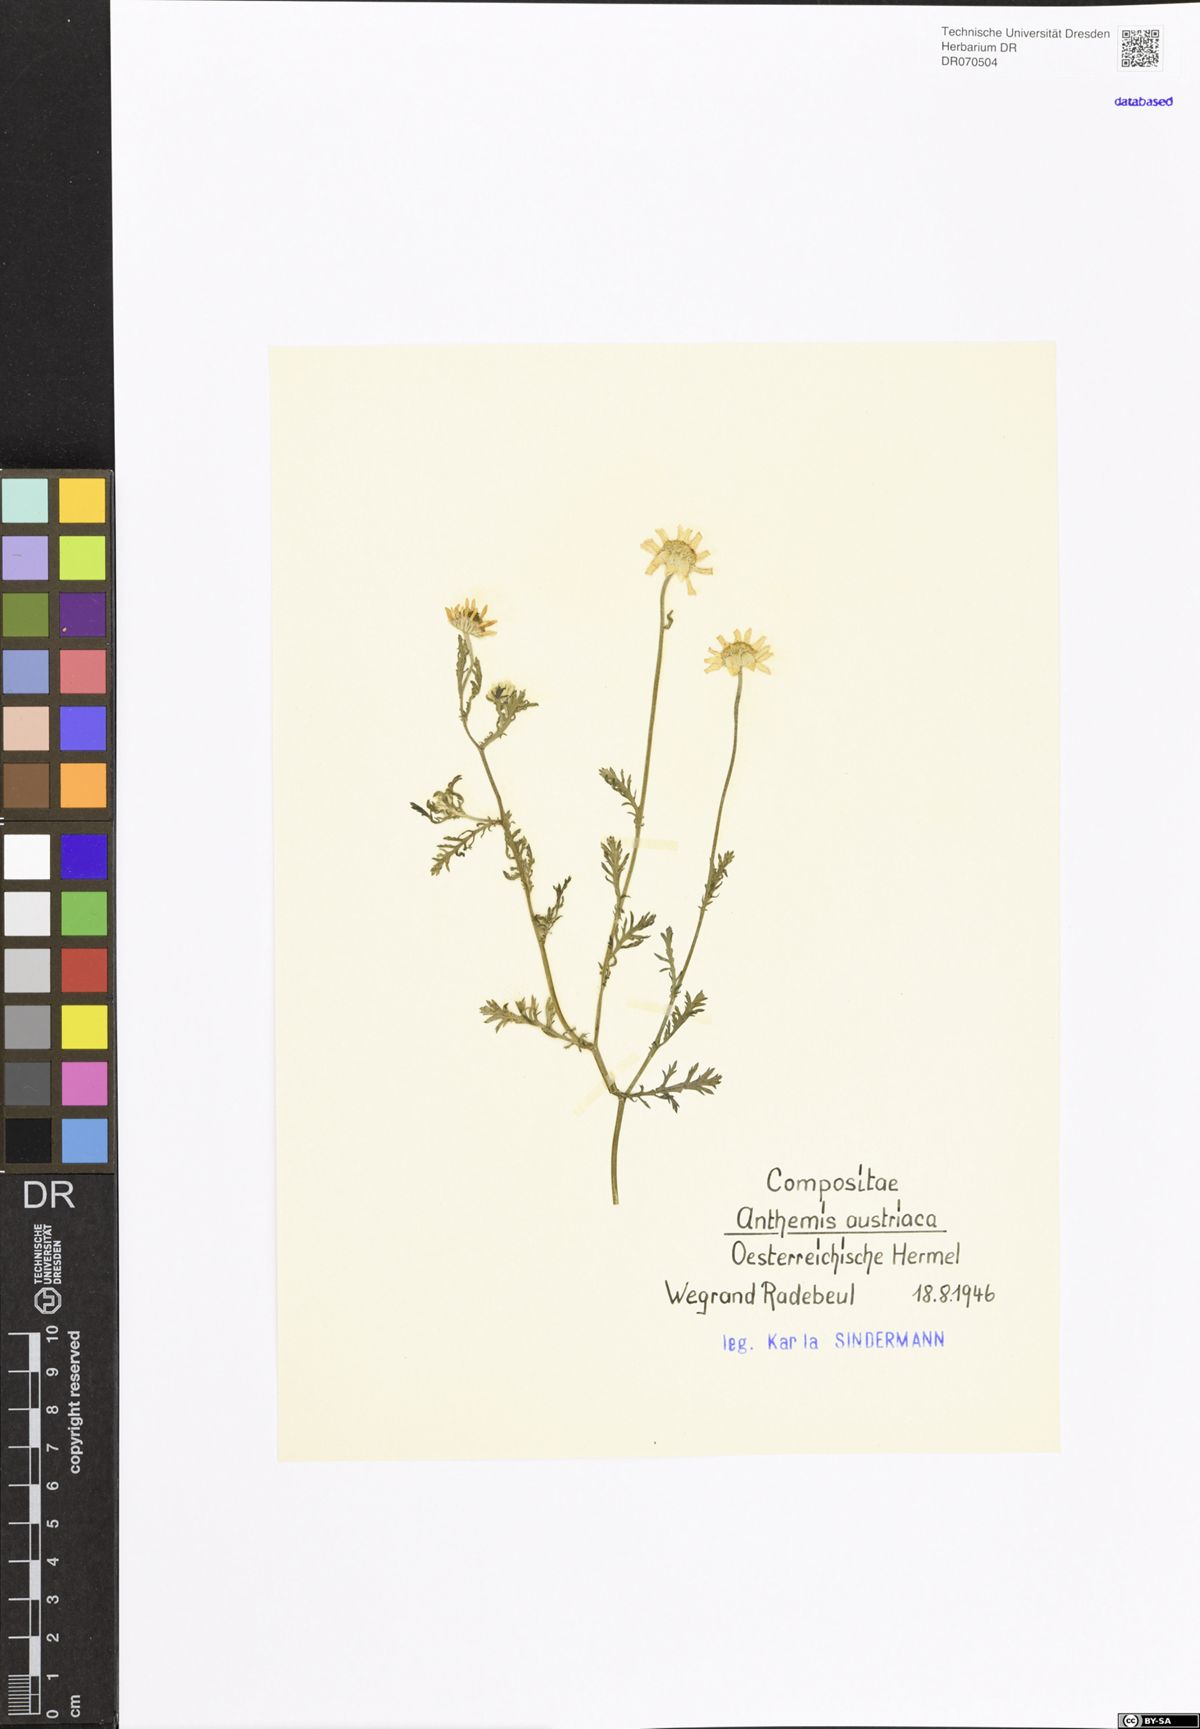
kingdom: Plantae
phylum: Tracheophyta
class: Magnoliopsida
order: Asterales
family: Asteraceae
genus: Cota
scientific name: Cota austriaca
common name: Austrian chamomile
